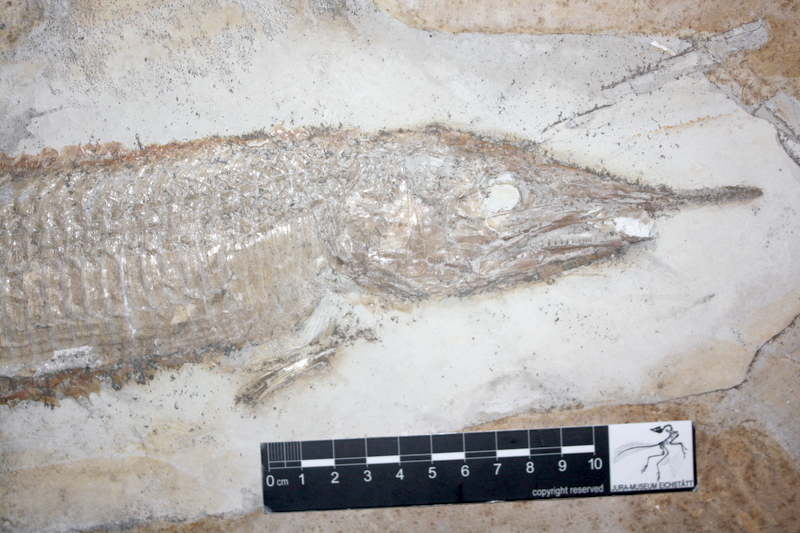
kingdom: Animalia
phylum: Chordata
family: Aspidorhynchidae
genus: Aspidorhynchus
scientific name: Aspidorhynchus acutirostris
